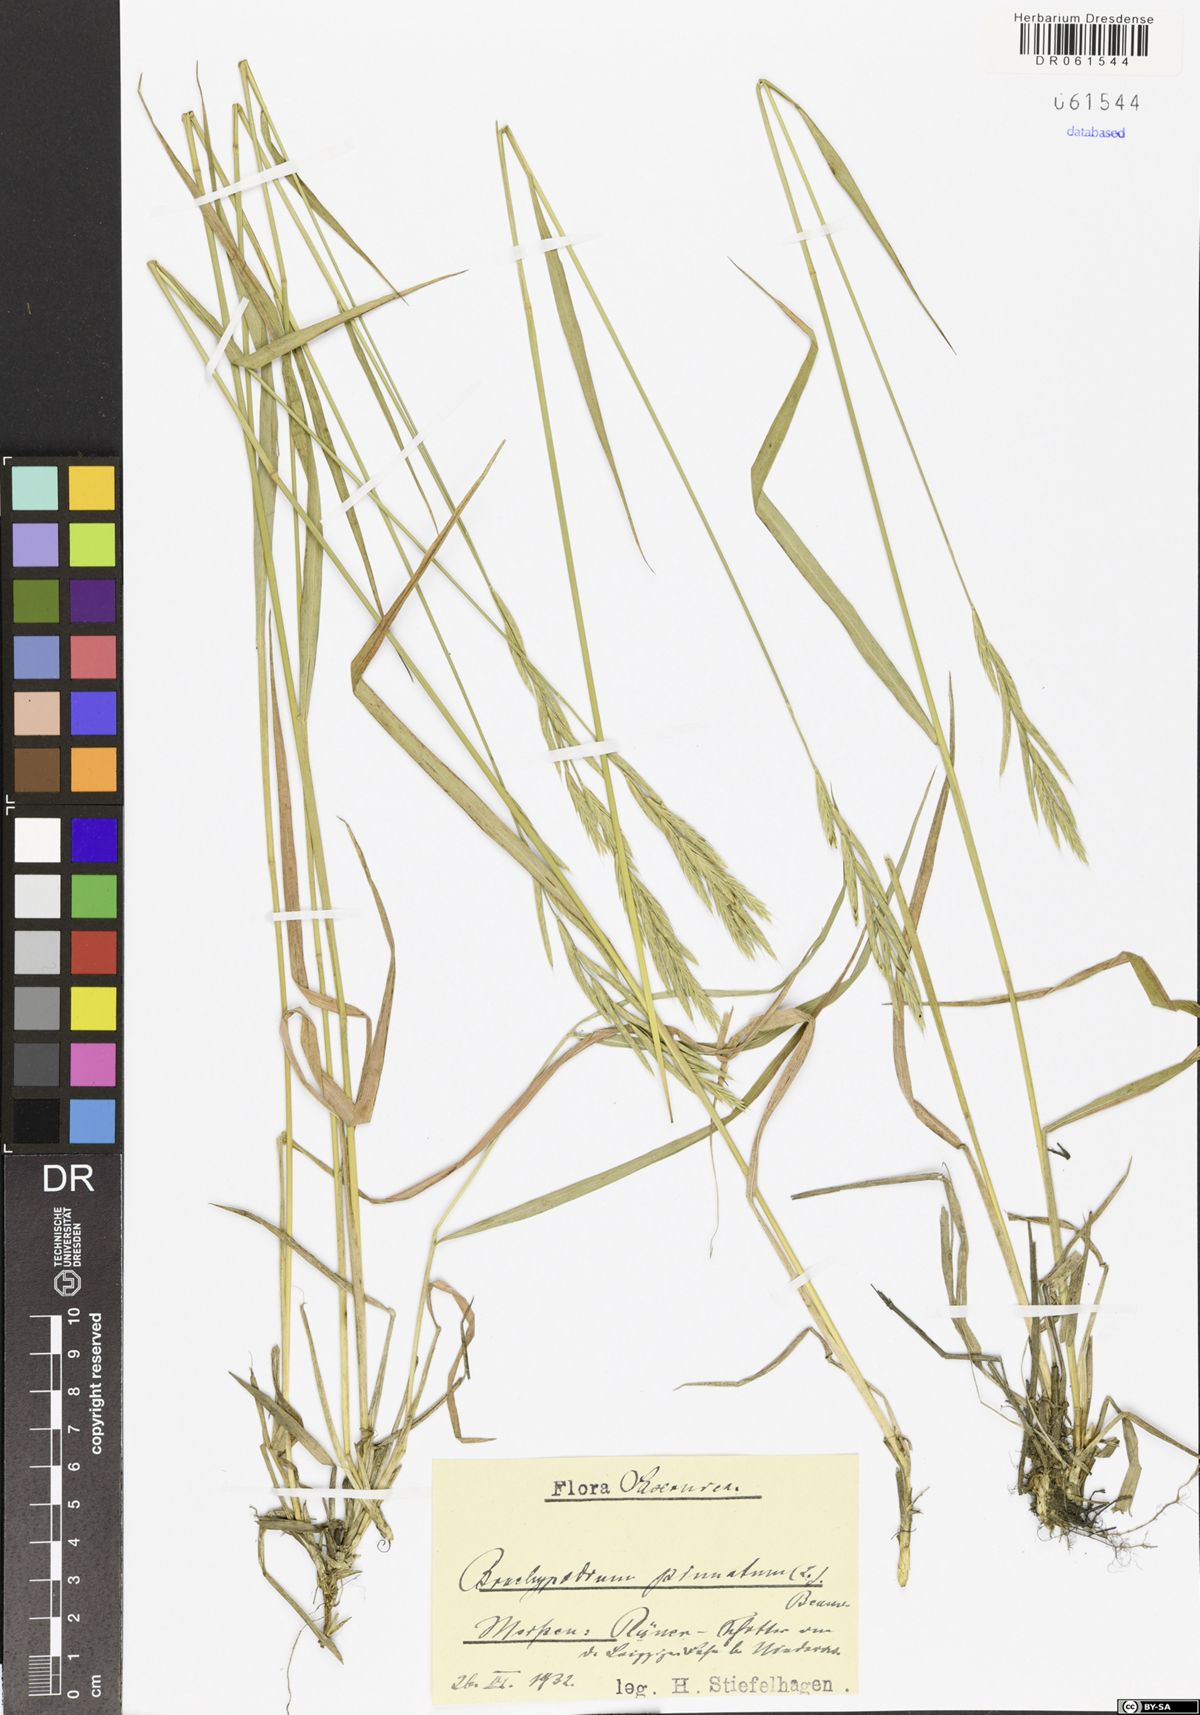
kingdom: Plantae
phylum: Tracheophyta
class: Liliopsida
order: Poales
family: Poaceae
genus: Brachypodium
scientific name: Brachypodium pinnatum
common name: Tor grass
